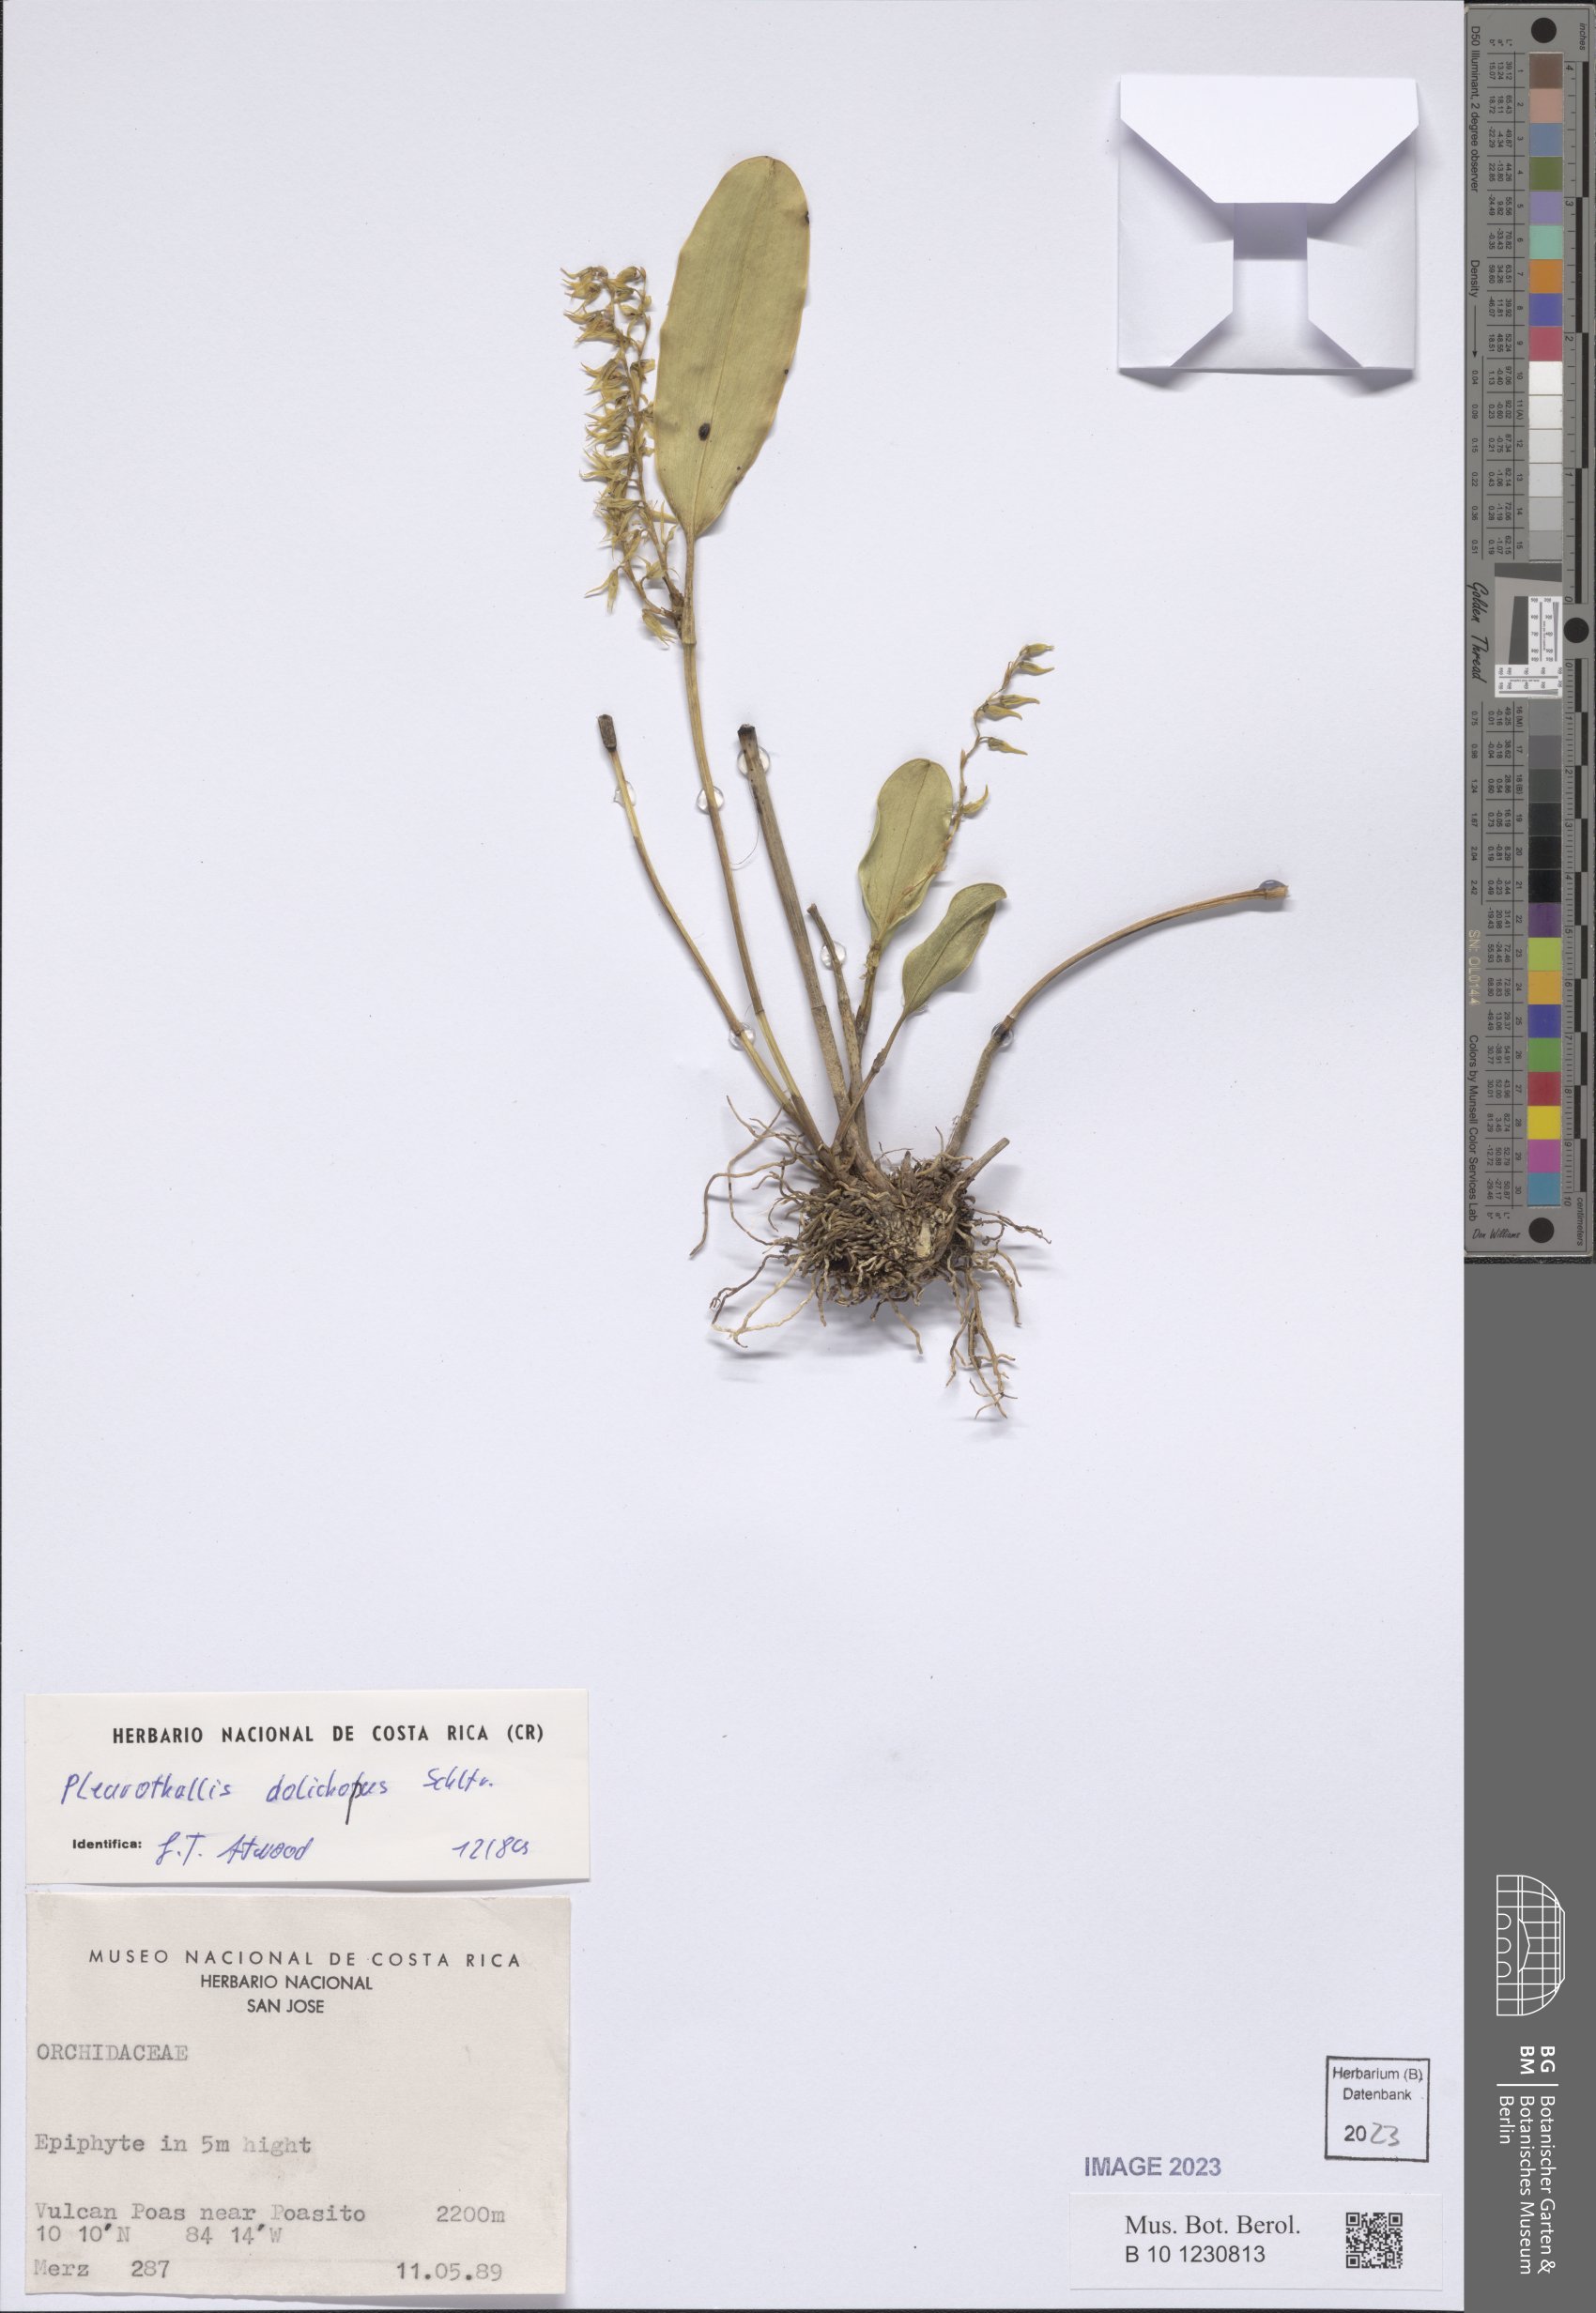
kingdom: Plantae
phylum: Tracheophyta
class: Liliopsida
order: Asparagales
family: Orchidaceae
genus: Stelis
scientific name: Stelis poasensis
